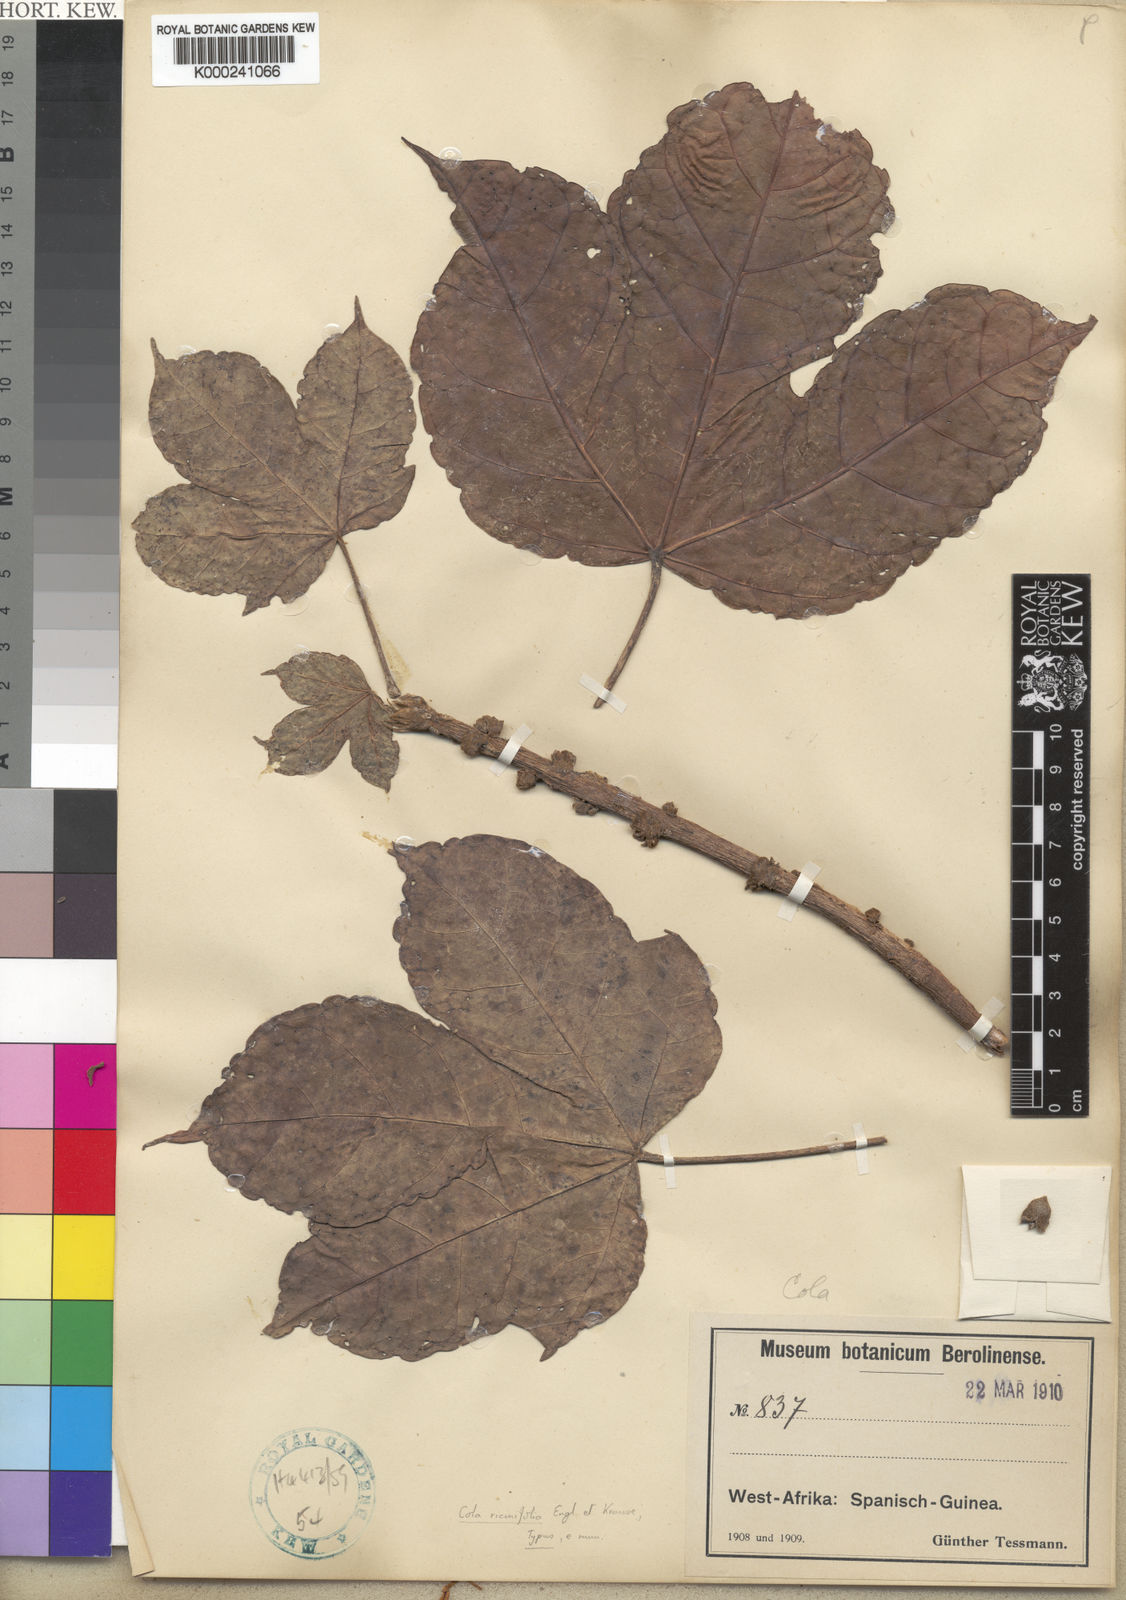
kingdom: Plantae
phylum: Tracheophyta
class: Magnoliopsida
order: Malvales
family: Malvaceae
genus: Cola
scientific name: Cola ricinifolia
